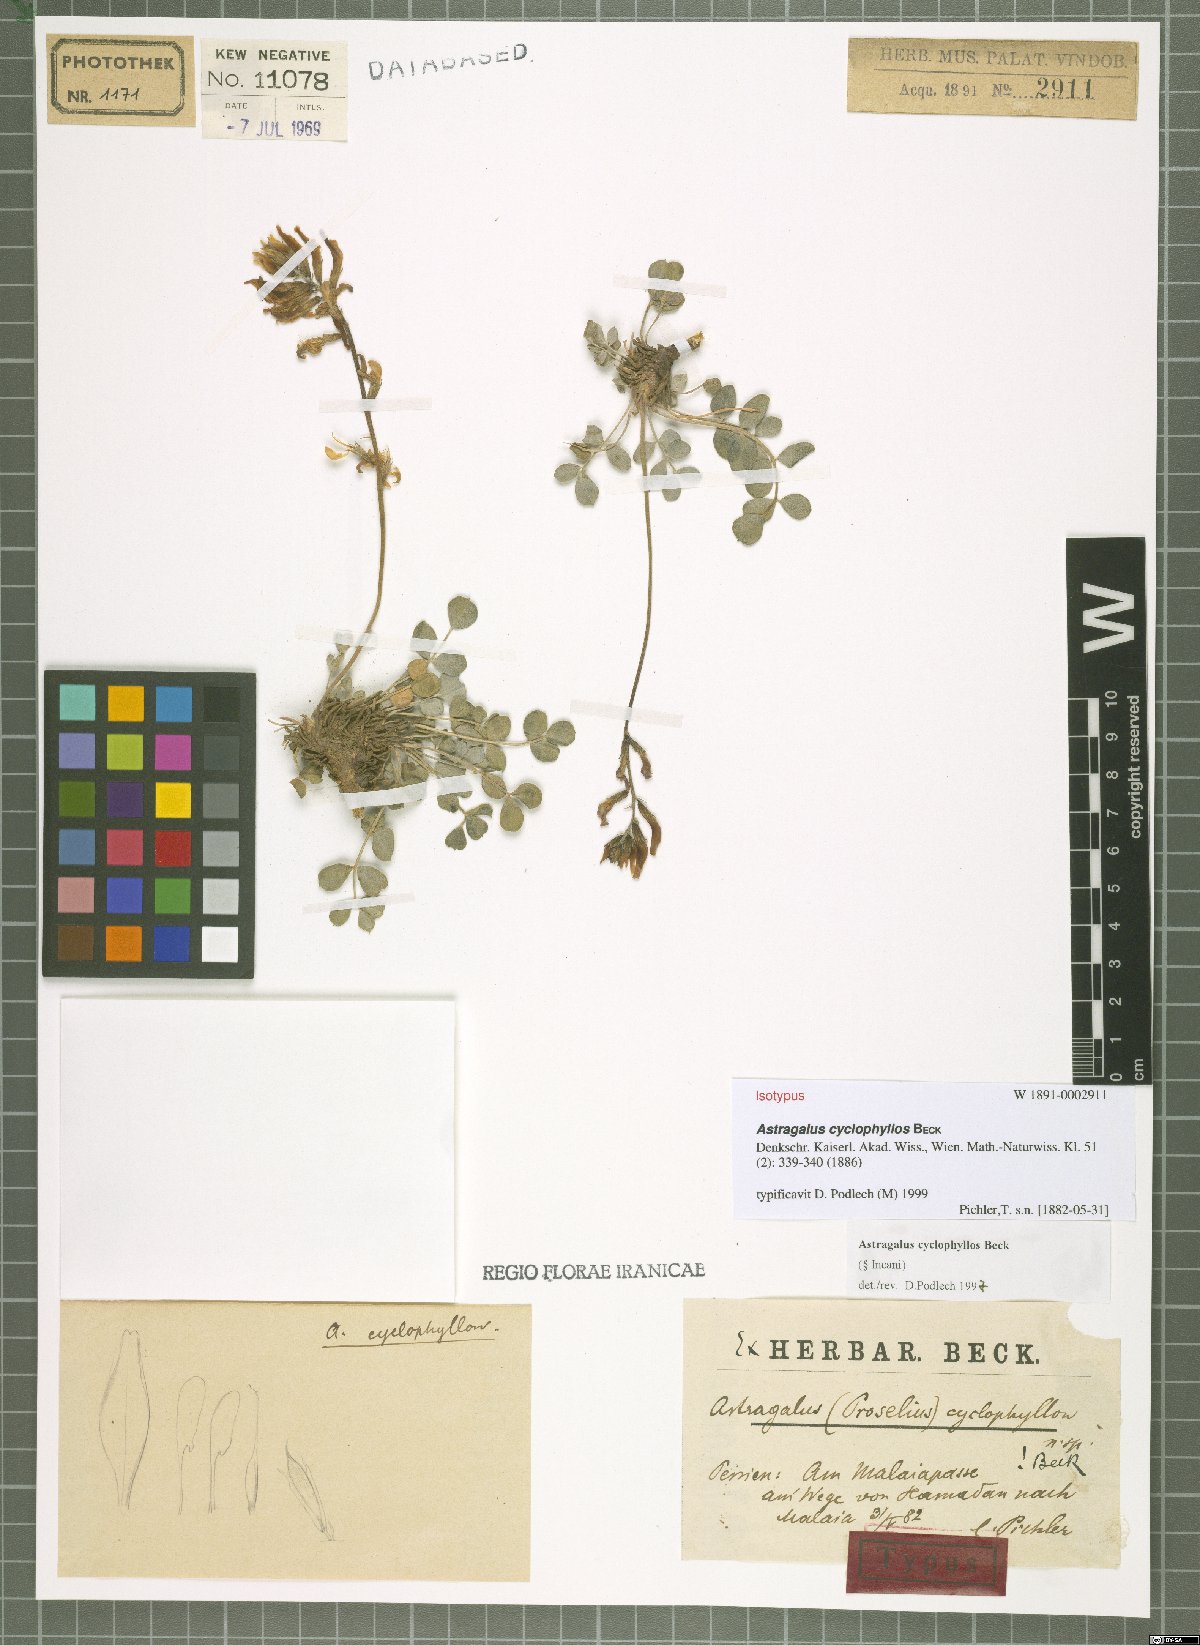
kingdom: Plantae
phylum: Tracheophyta
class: Magnoliopsida
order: Fabales
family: Fabaceae
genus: Astragalus
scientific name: Astragalus cyclophyllos
